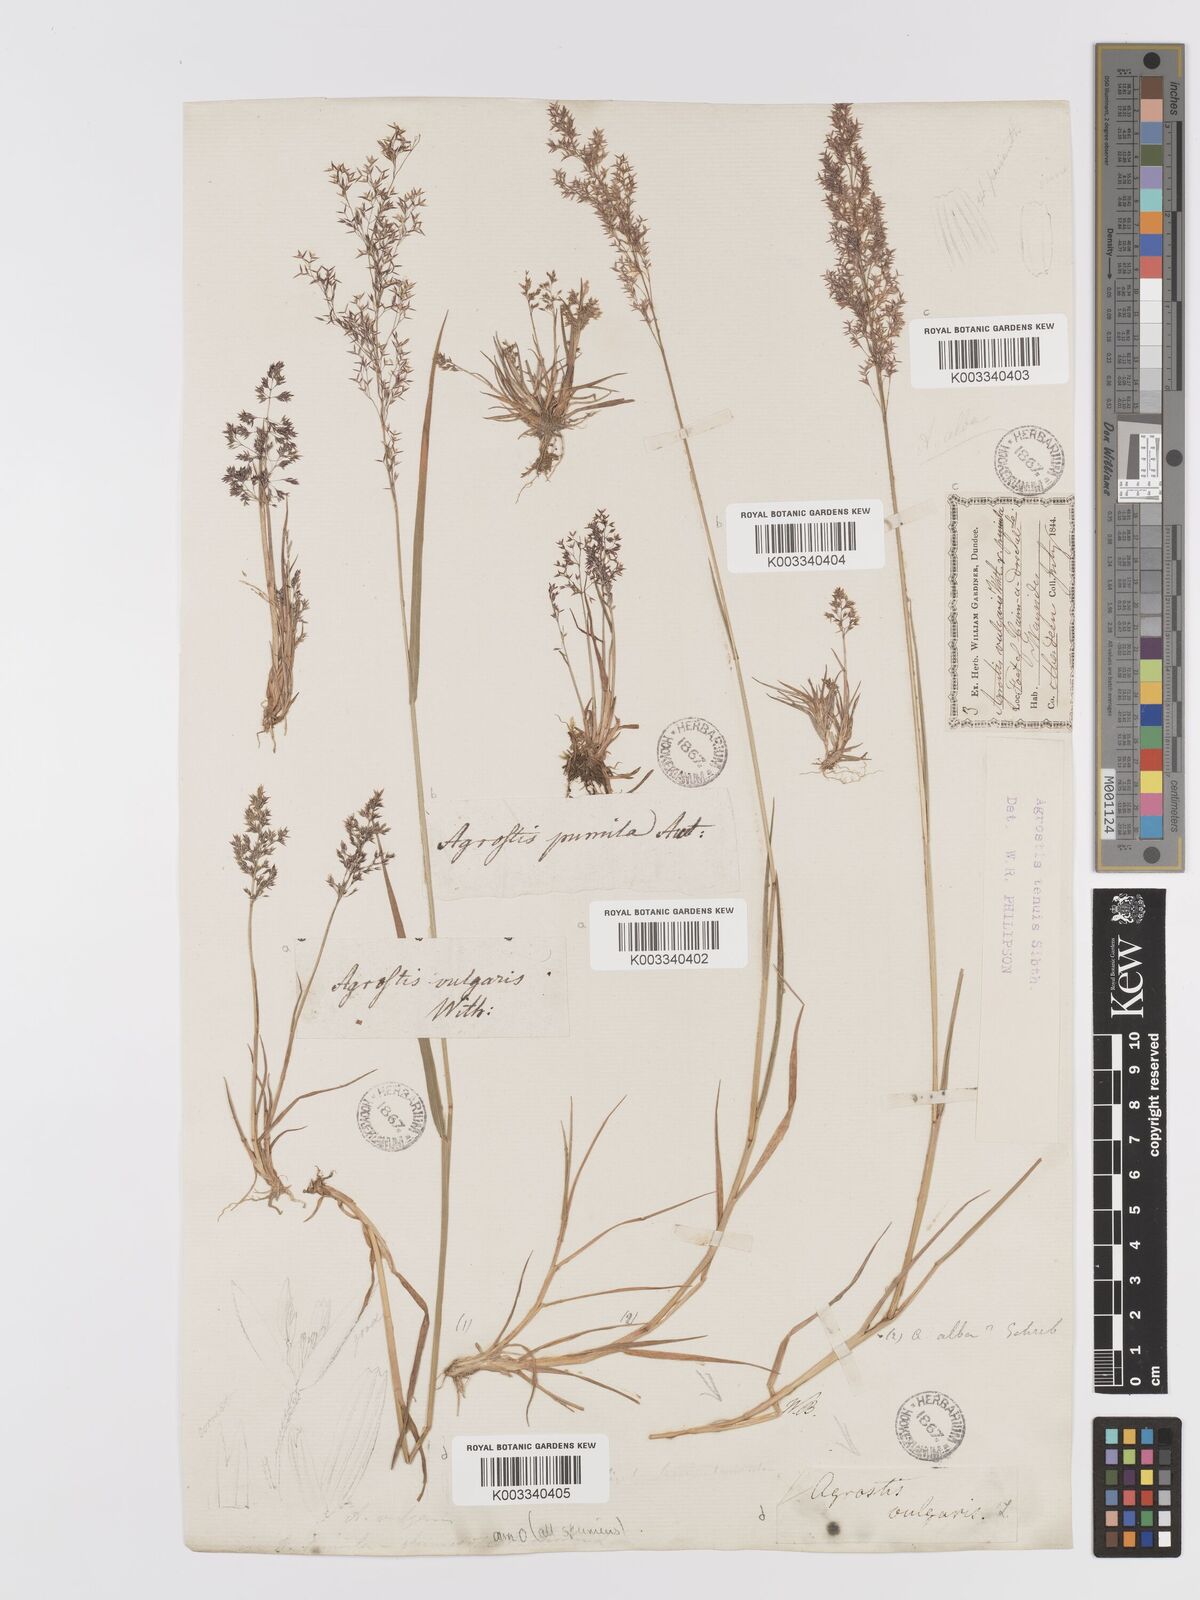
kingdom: Plantae
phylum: Tracheophyta
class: Liliopsida
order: Poales
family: Poaceae
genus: Agrostis
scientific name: Agrostis capillaris
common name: Colonial bentgrass
